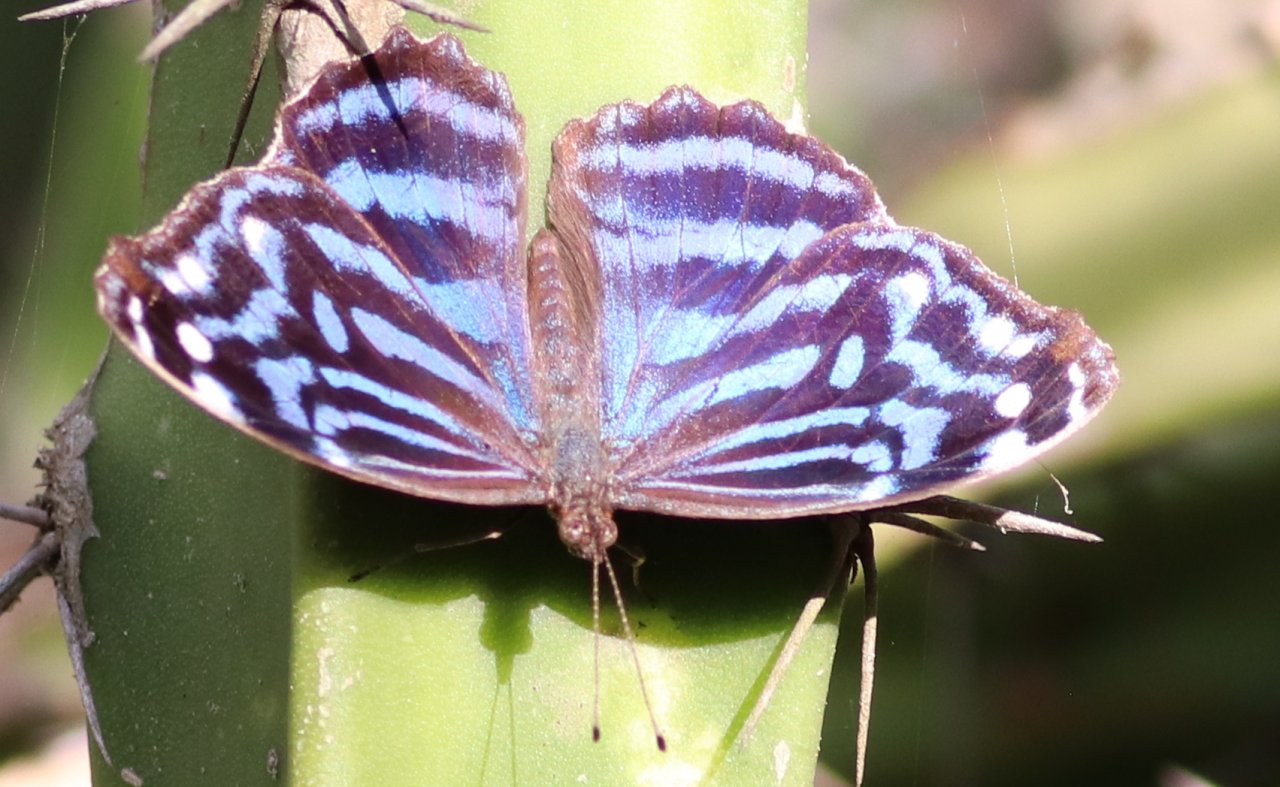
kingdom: Animalia
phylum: Arthropoda
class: Insecta
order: Lepidoptera
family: Nymphalidae
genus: Myscelia
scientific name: Myscelia ethusa
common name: Mexican Bluewing
